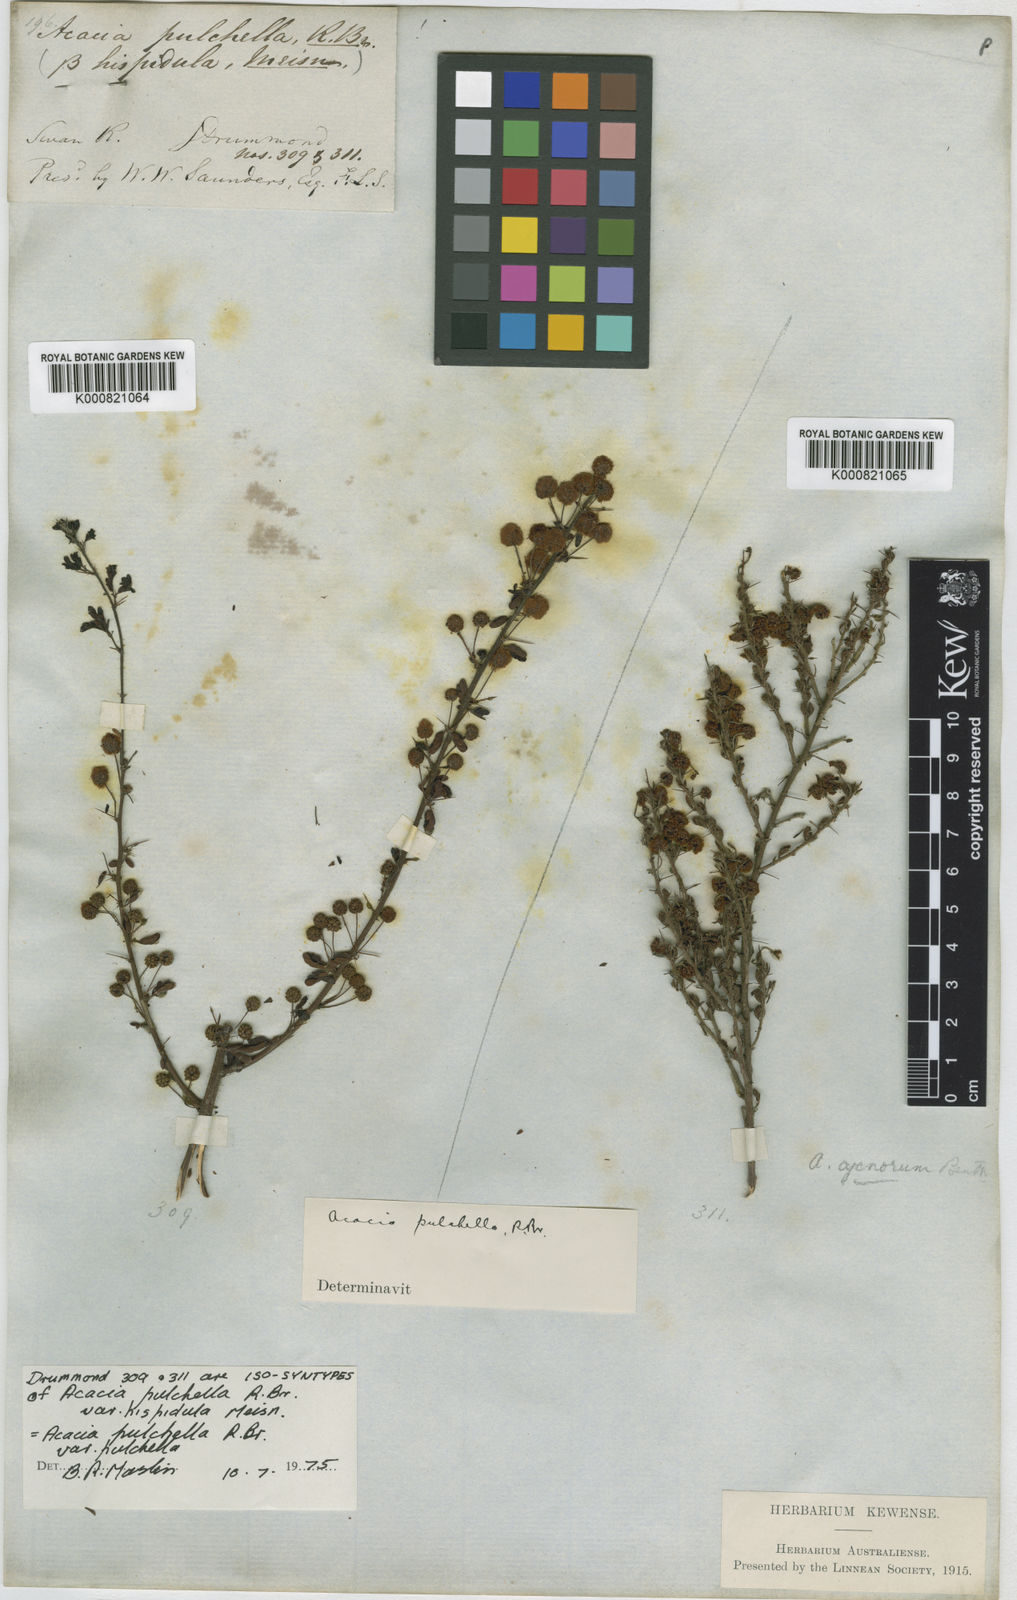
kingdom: Plantae
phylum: Tracheophyta
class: Magnoliopsida
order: Fabales
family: Fabaceae
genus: Acacia
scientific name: Acacia pulchella
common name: Prickly moses
